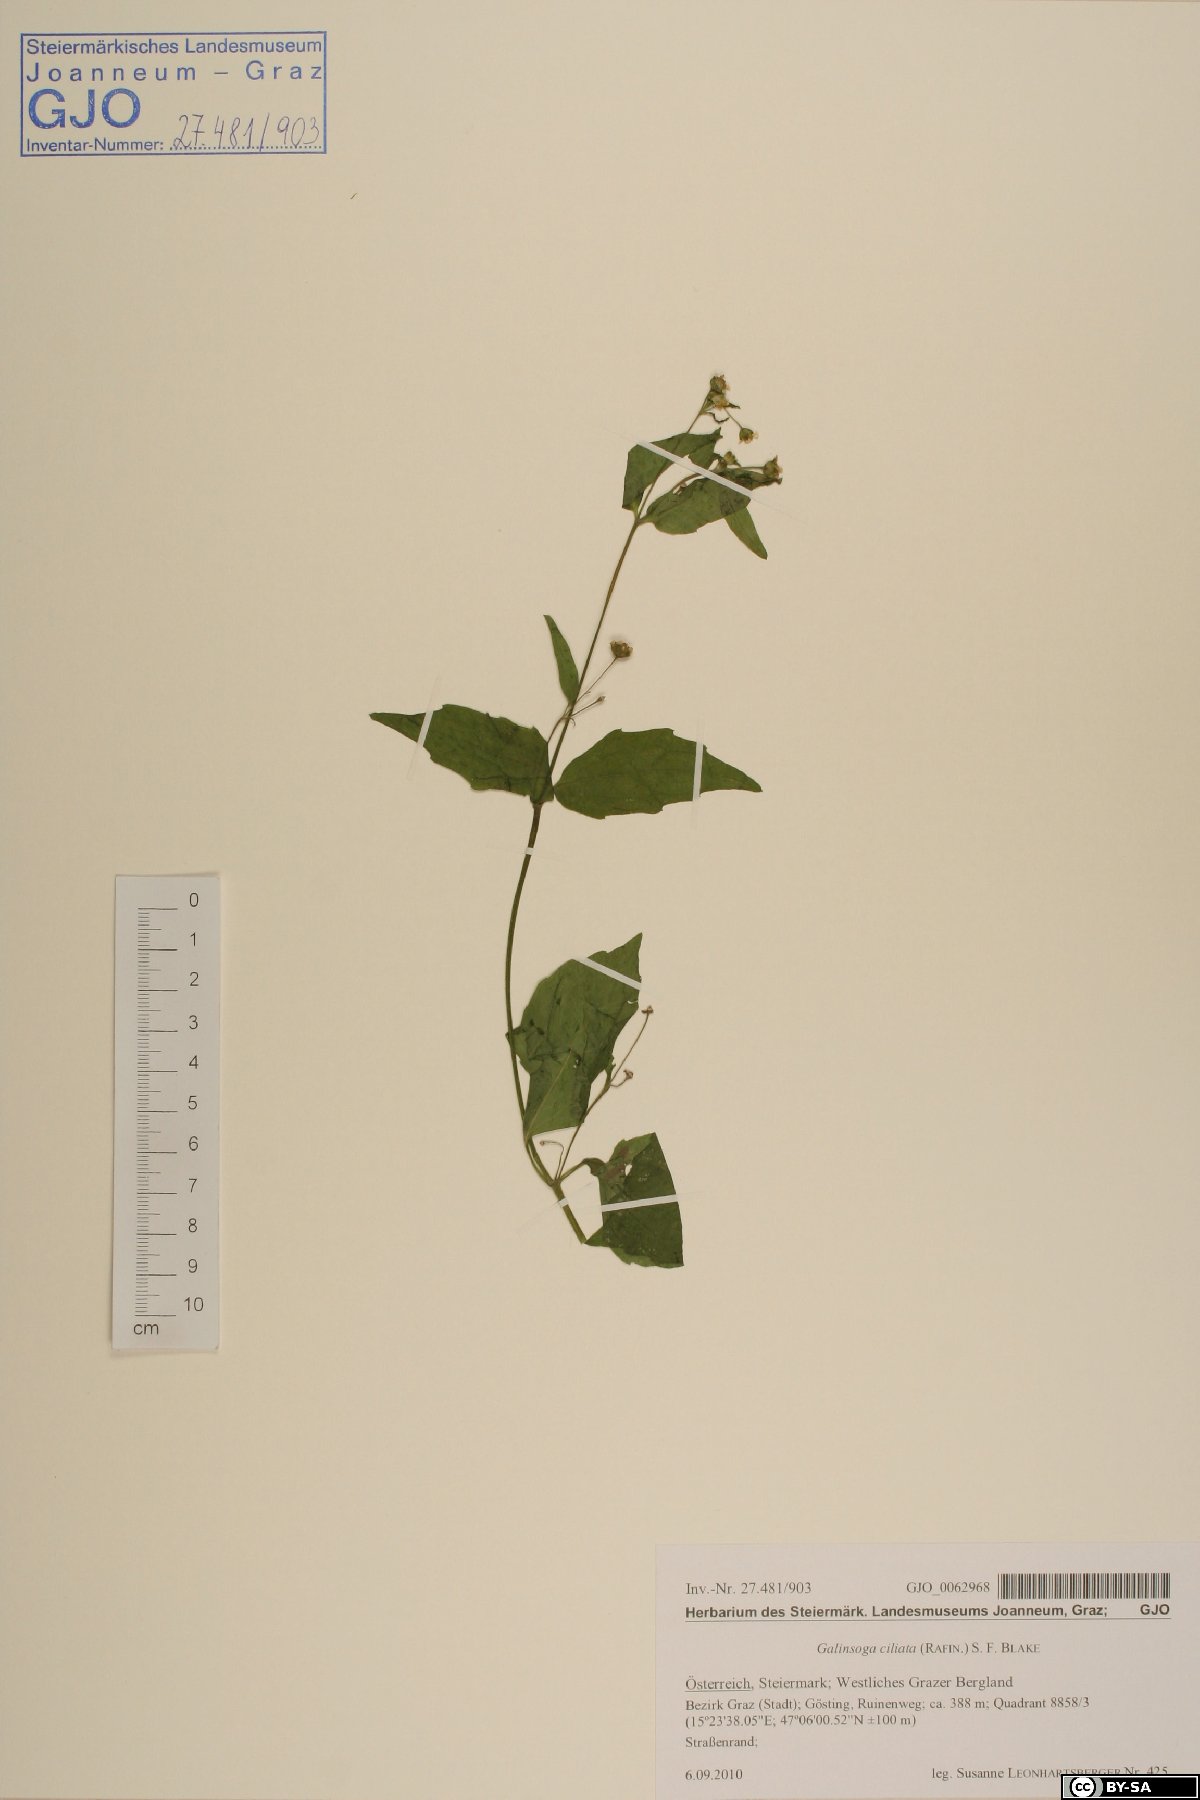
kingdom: Plantae
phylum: Tracheophyta
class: Magnoliopsida
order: Asterales
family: Asteraceae
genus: Galinsoga
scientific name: Galinsoga quadriradiata
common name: Shaggy soldier
